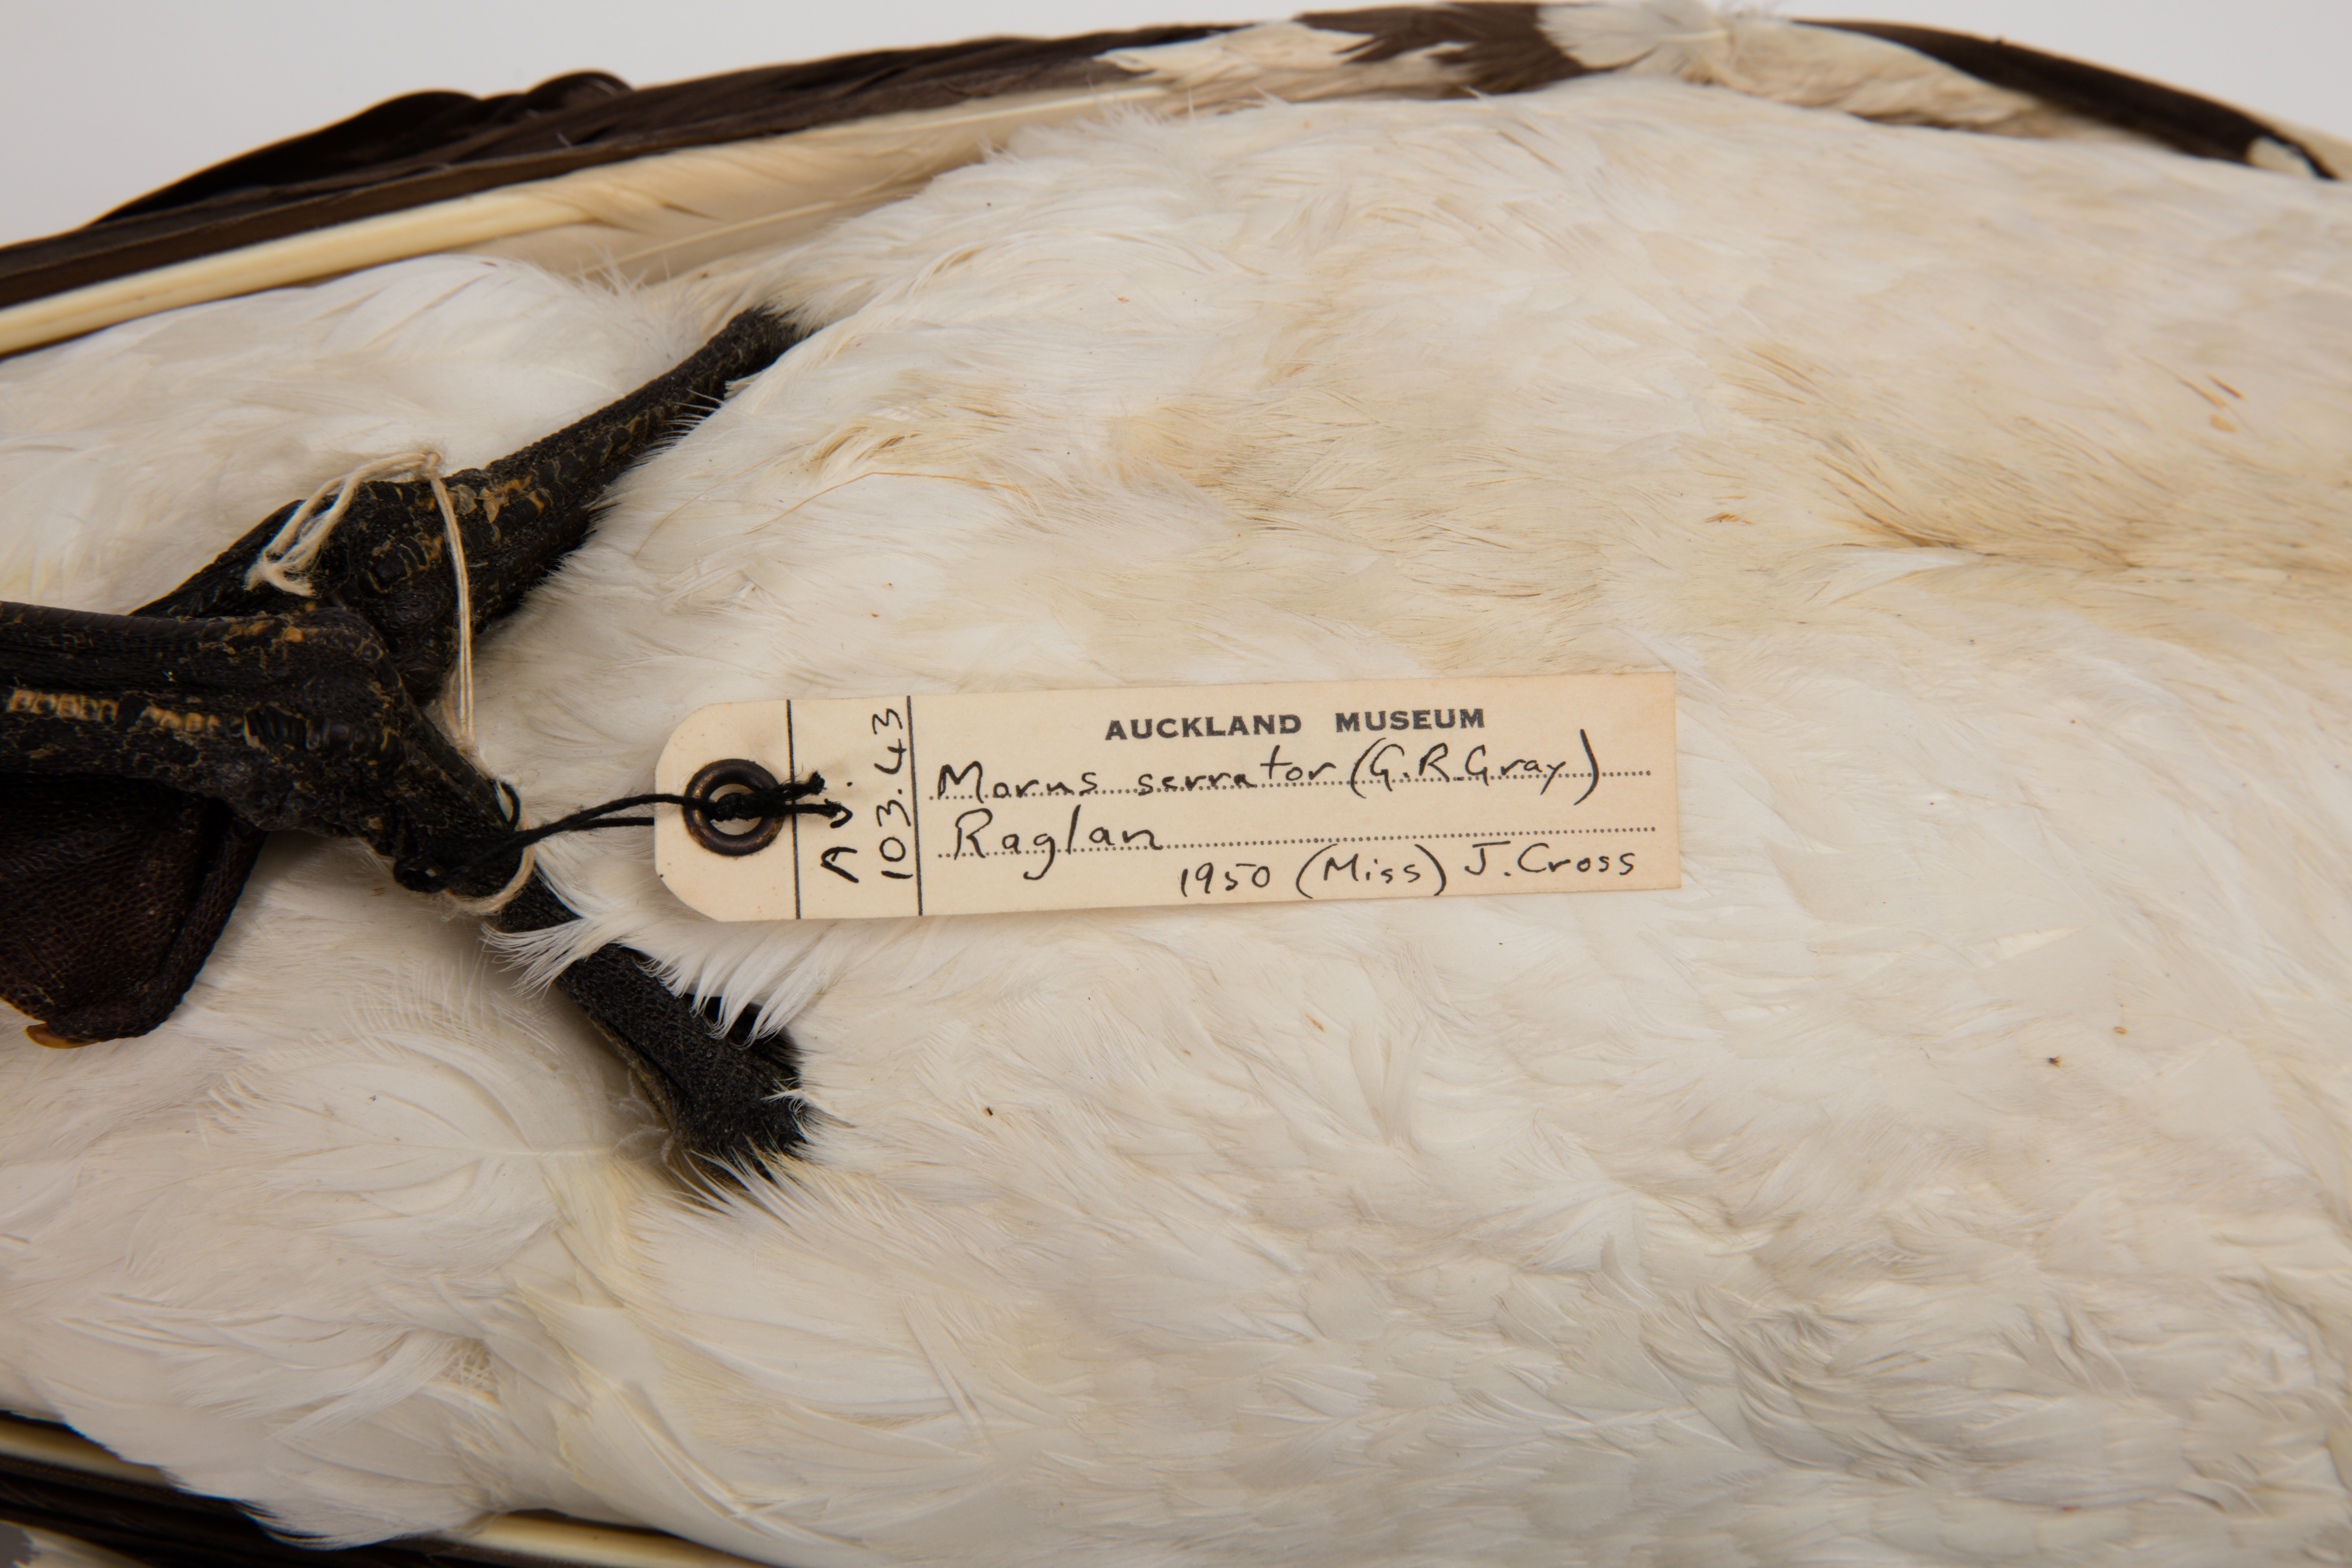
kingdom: Animalia
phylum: Chordata
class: Aves
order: Suliformes
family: Sulidae
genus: Morus
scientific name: Morus serrator
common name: Australasian gannet
